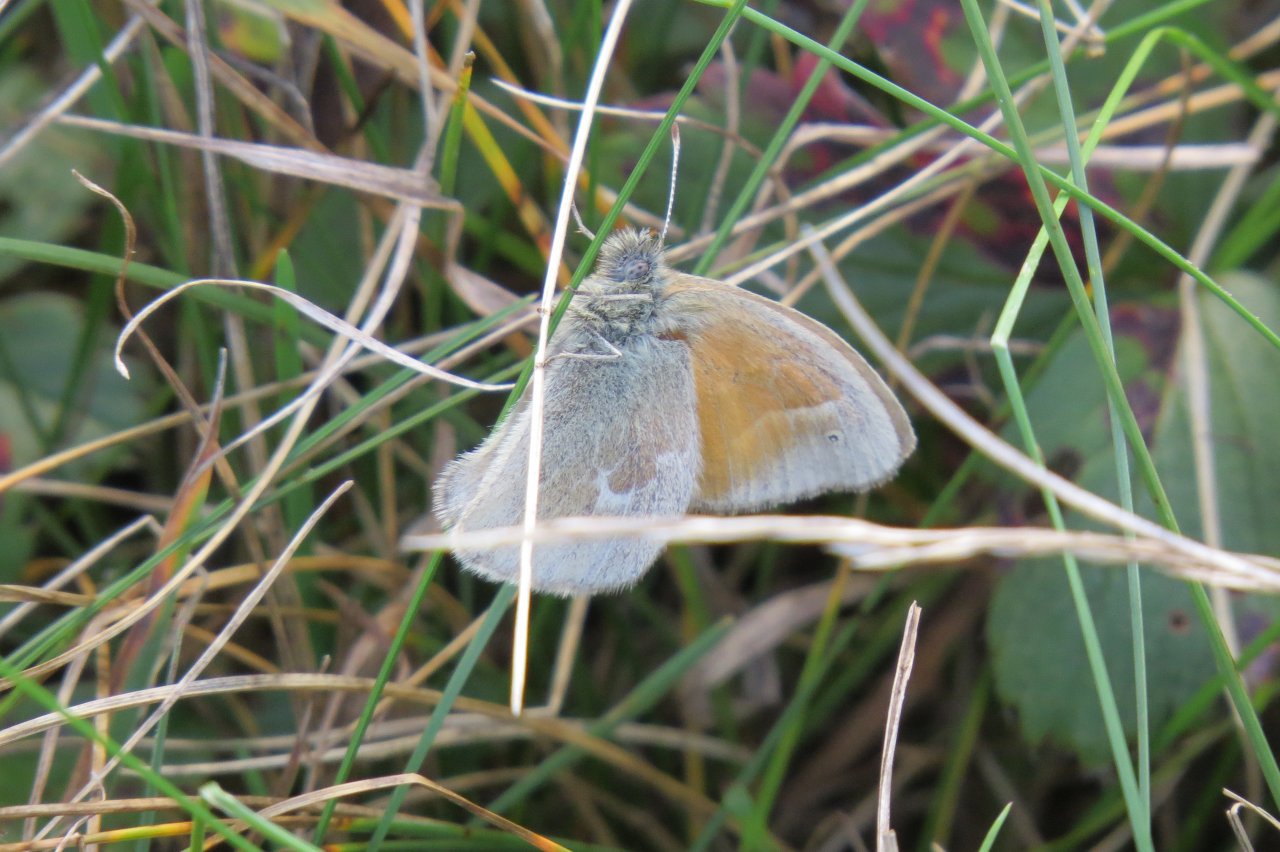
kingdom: Animalia
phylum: Arthropoda
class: Insecta
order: Lepidoptera
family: Nymphalidae
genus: Coenonympha
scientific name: Coenonympha tullia
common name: Large Heath
